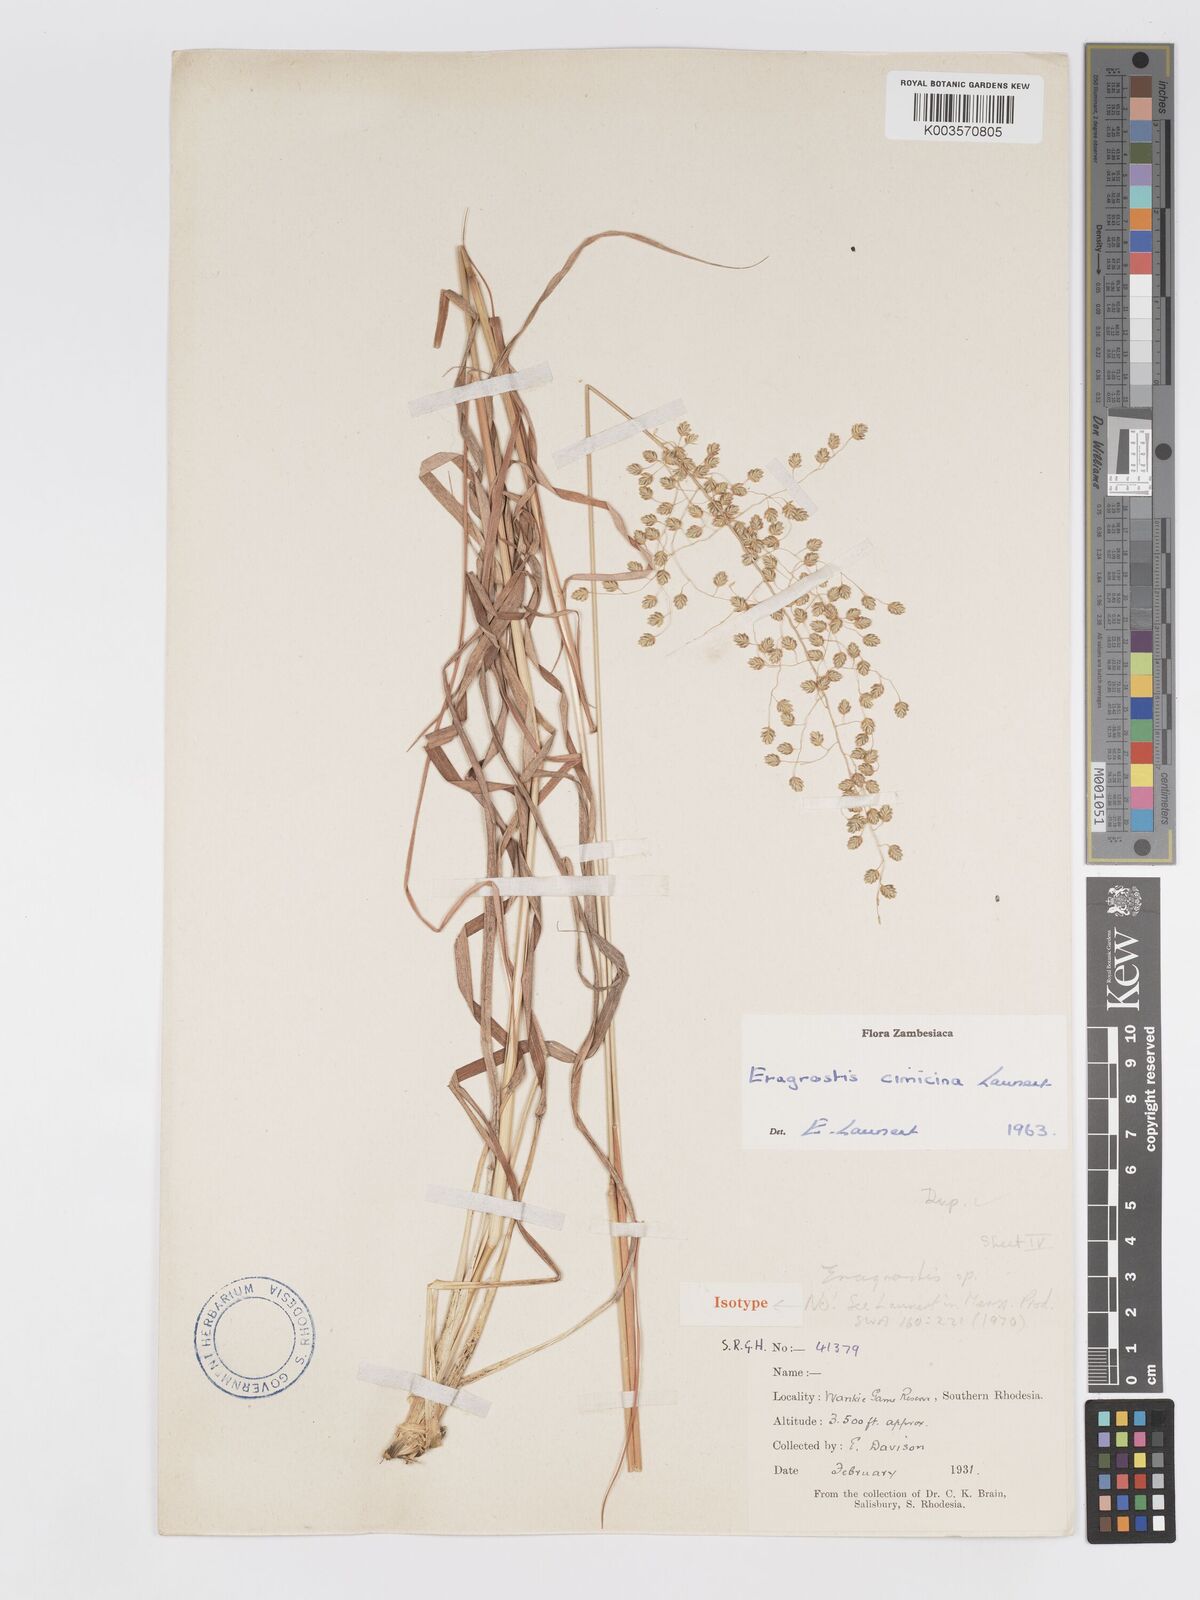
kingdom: Plantae
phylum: Tracheophyta
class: Liliopsida
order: Poales
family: Poaceae
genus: Eragrostis
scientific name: Eragrostis cimicina
